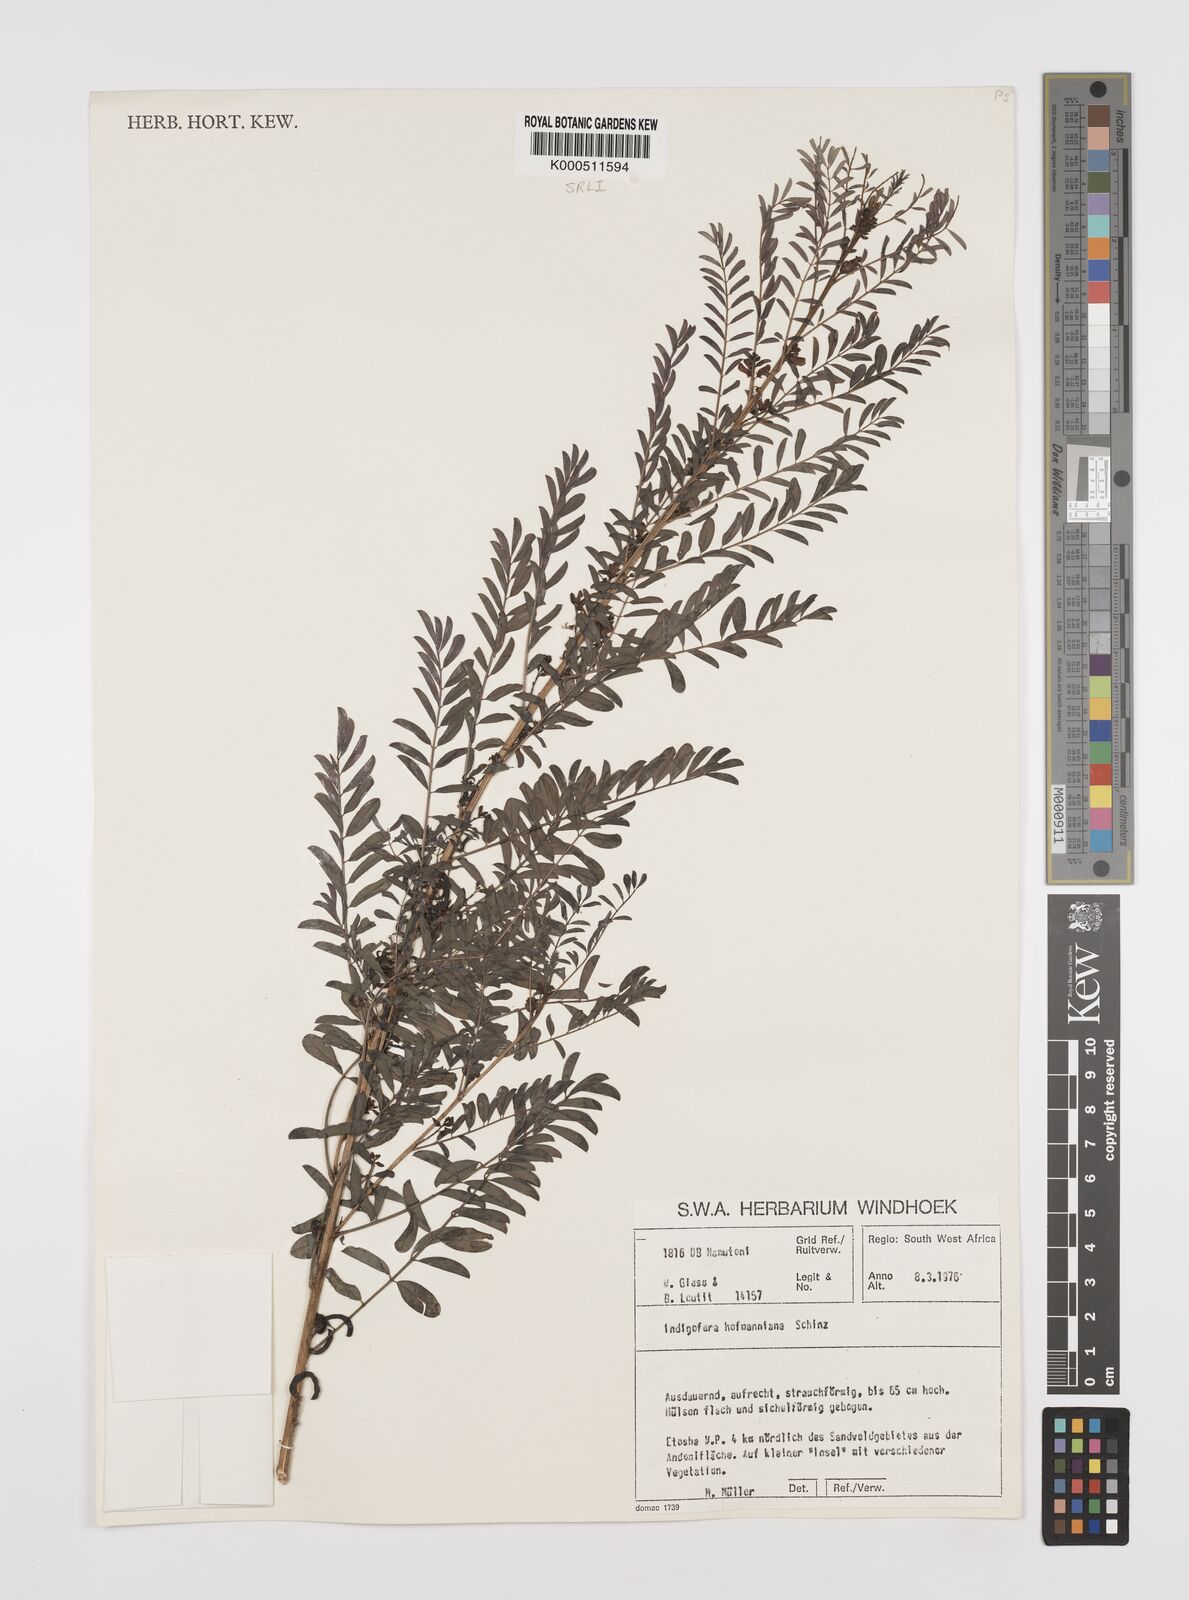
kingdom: Plantae
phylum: Tracheophyta
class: Magnoliopsida
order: Fabales
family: Fabaceae
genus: Indigofera
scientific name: Indigofera hofmanniana
